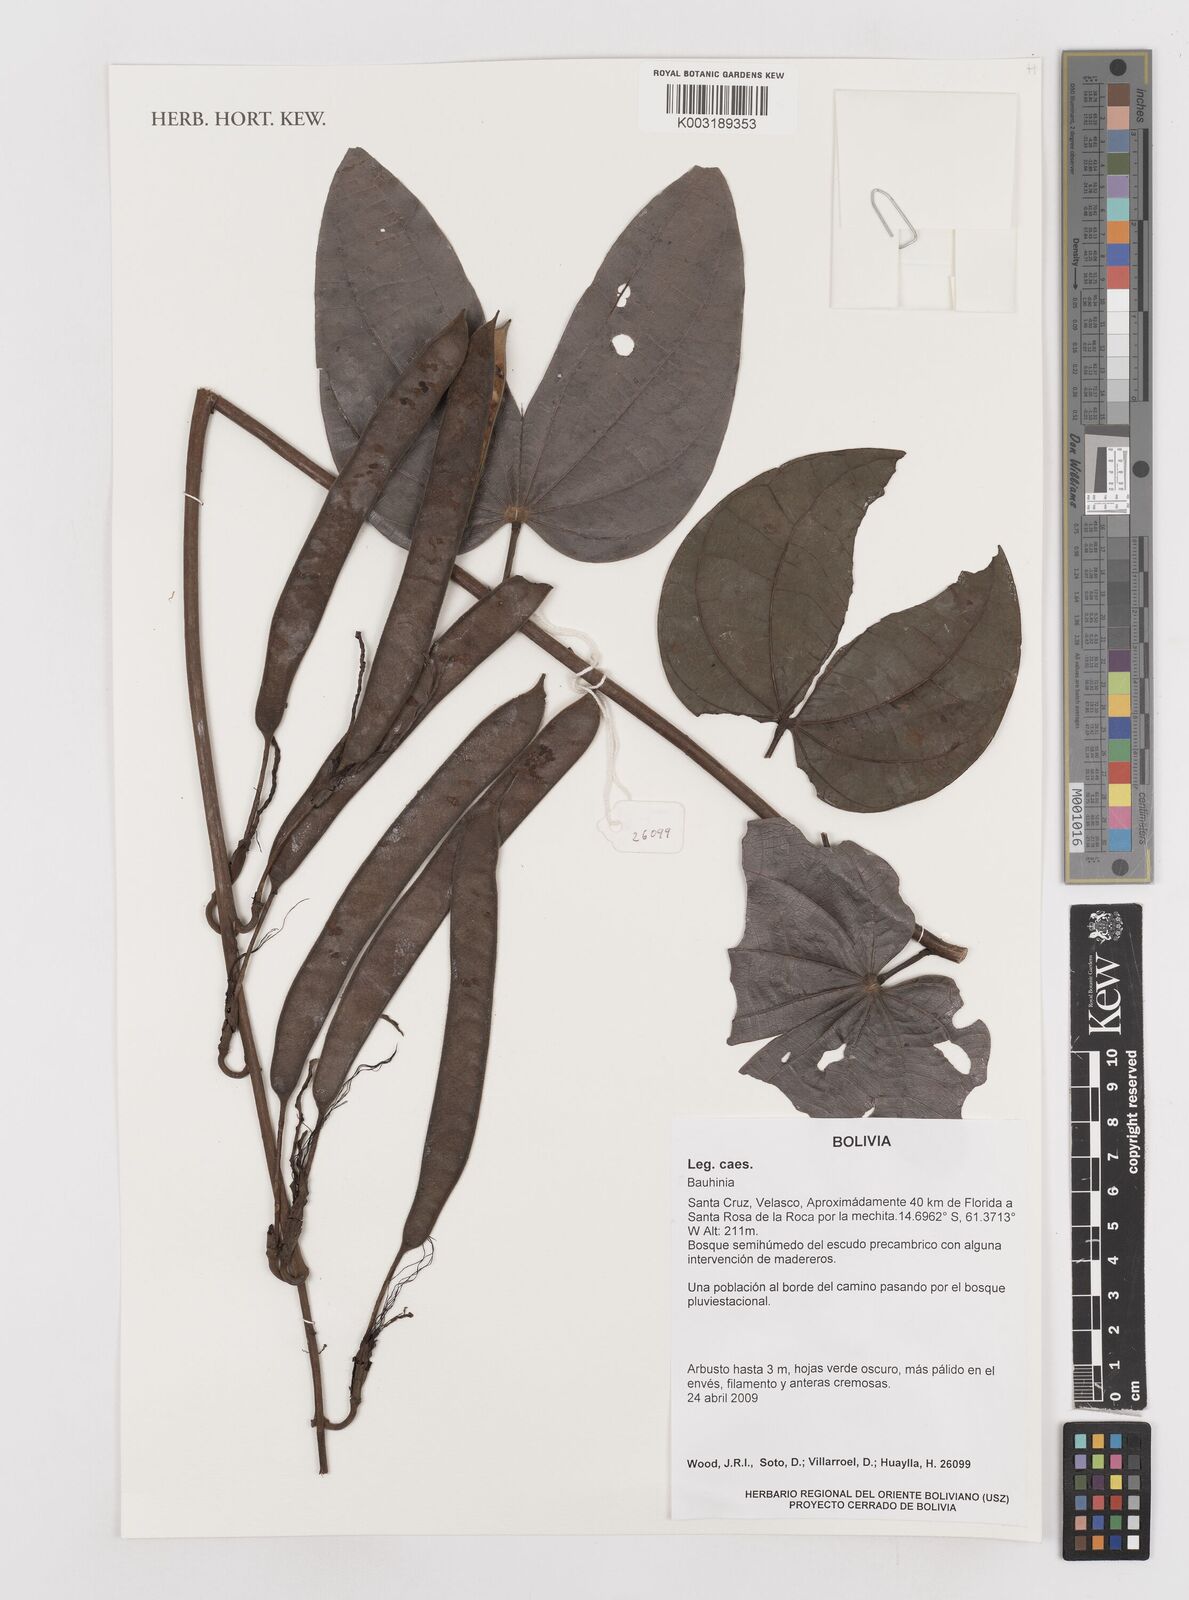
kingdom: Plantae
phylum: Tracheophyta
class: Magnoliopsida
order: Fabales
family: Fabaceae
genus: Bauhinia
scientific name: Bauhinia
